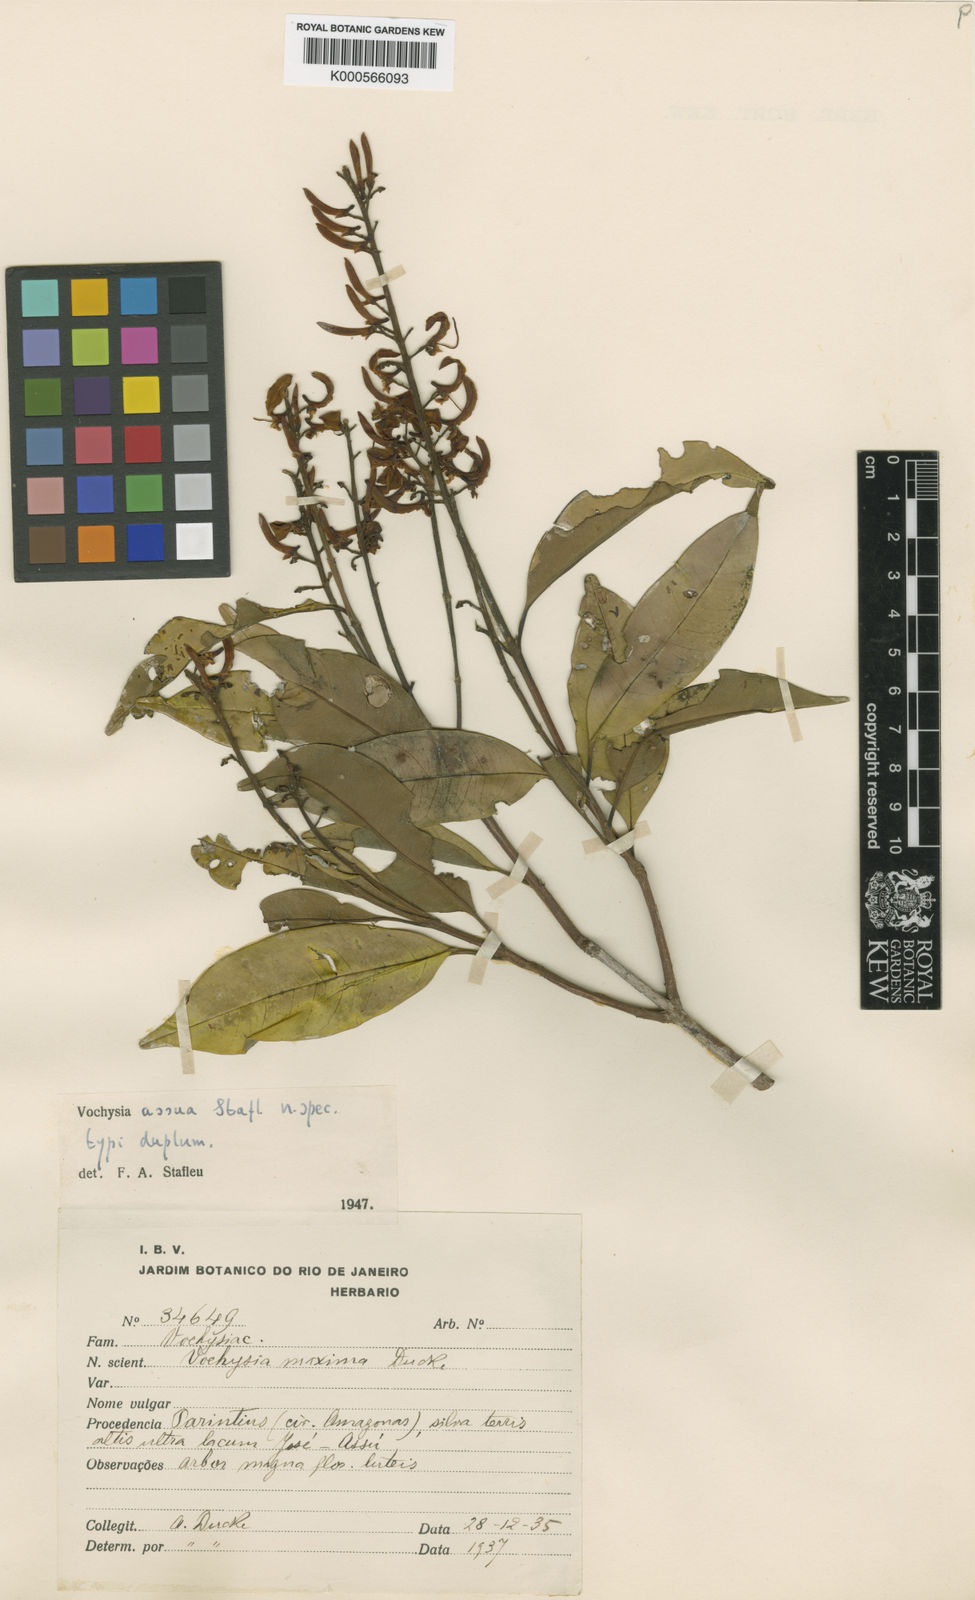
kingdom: Plantae
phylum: Tracheophyta
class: Magnoliopsida
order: Myrtales
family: Vochysiaceae
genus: Vochysia
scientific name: Vochysia maxima
